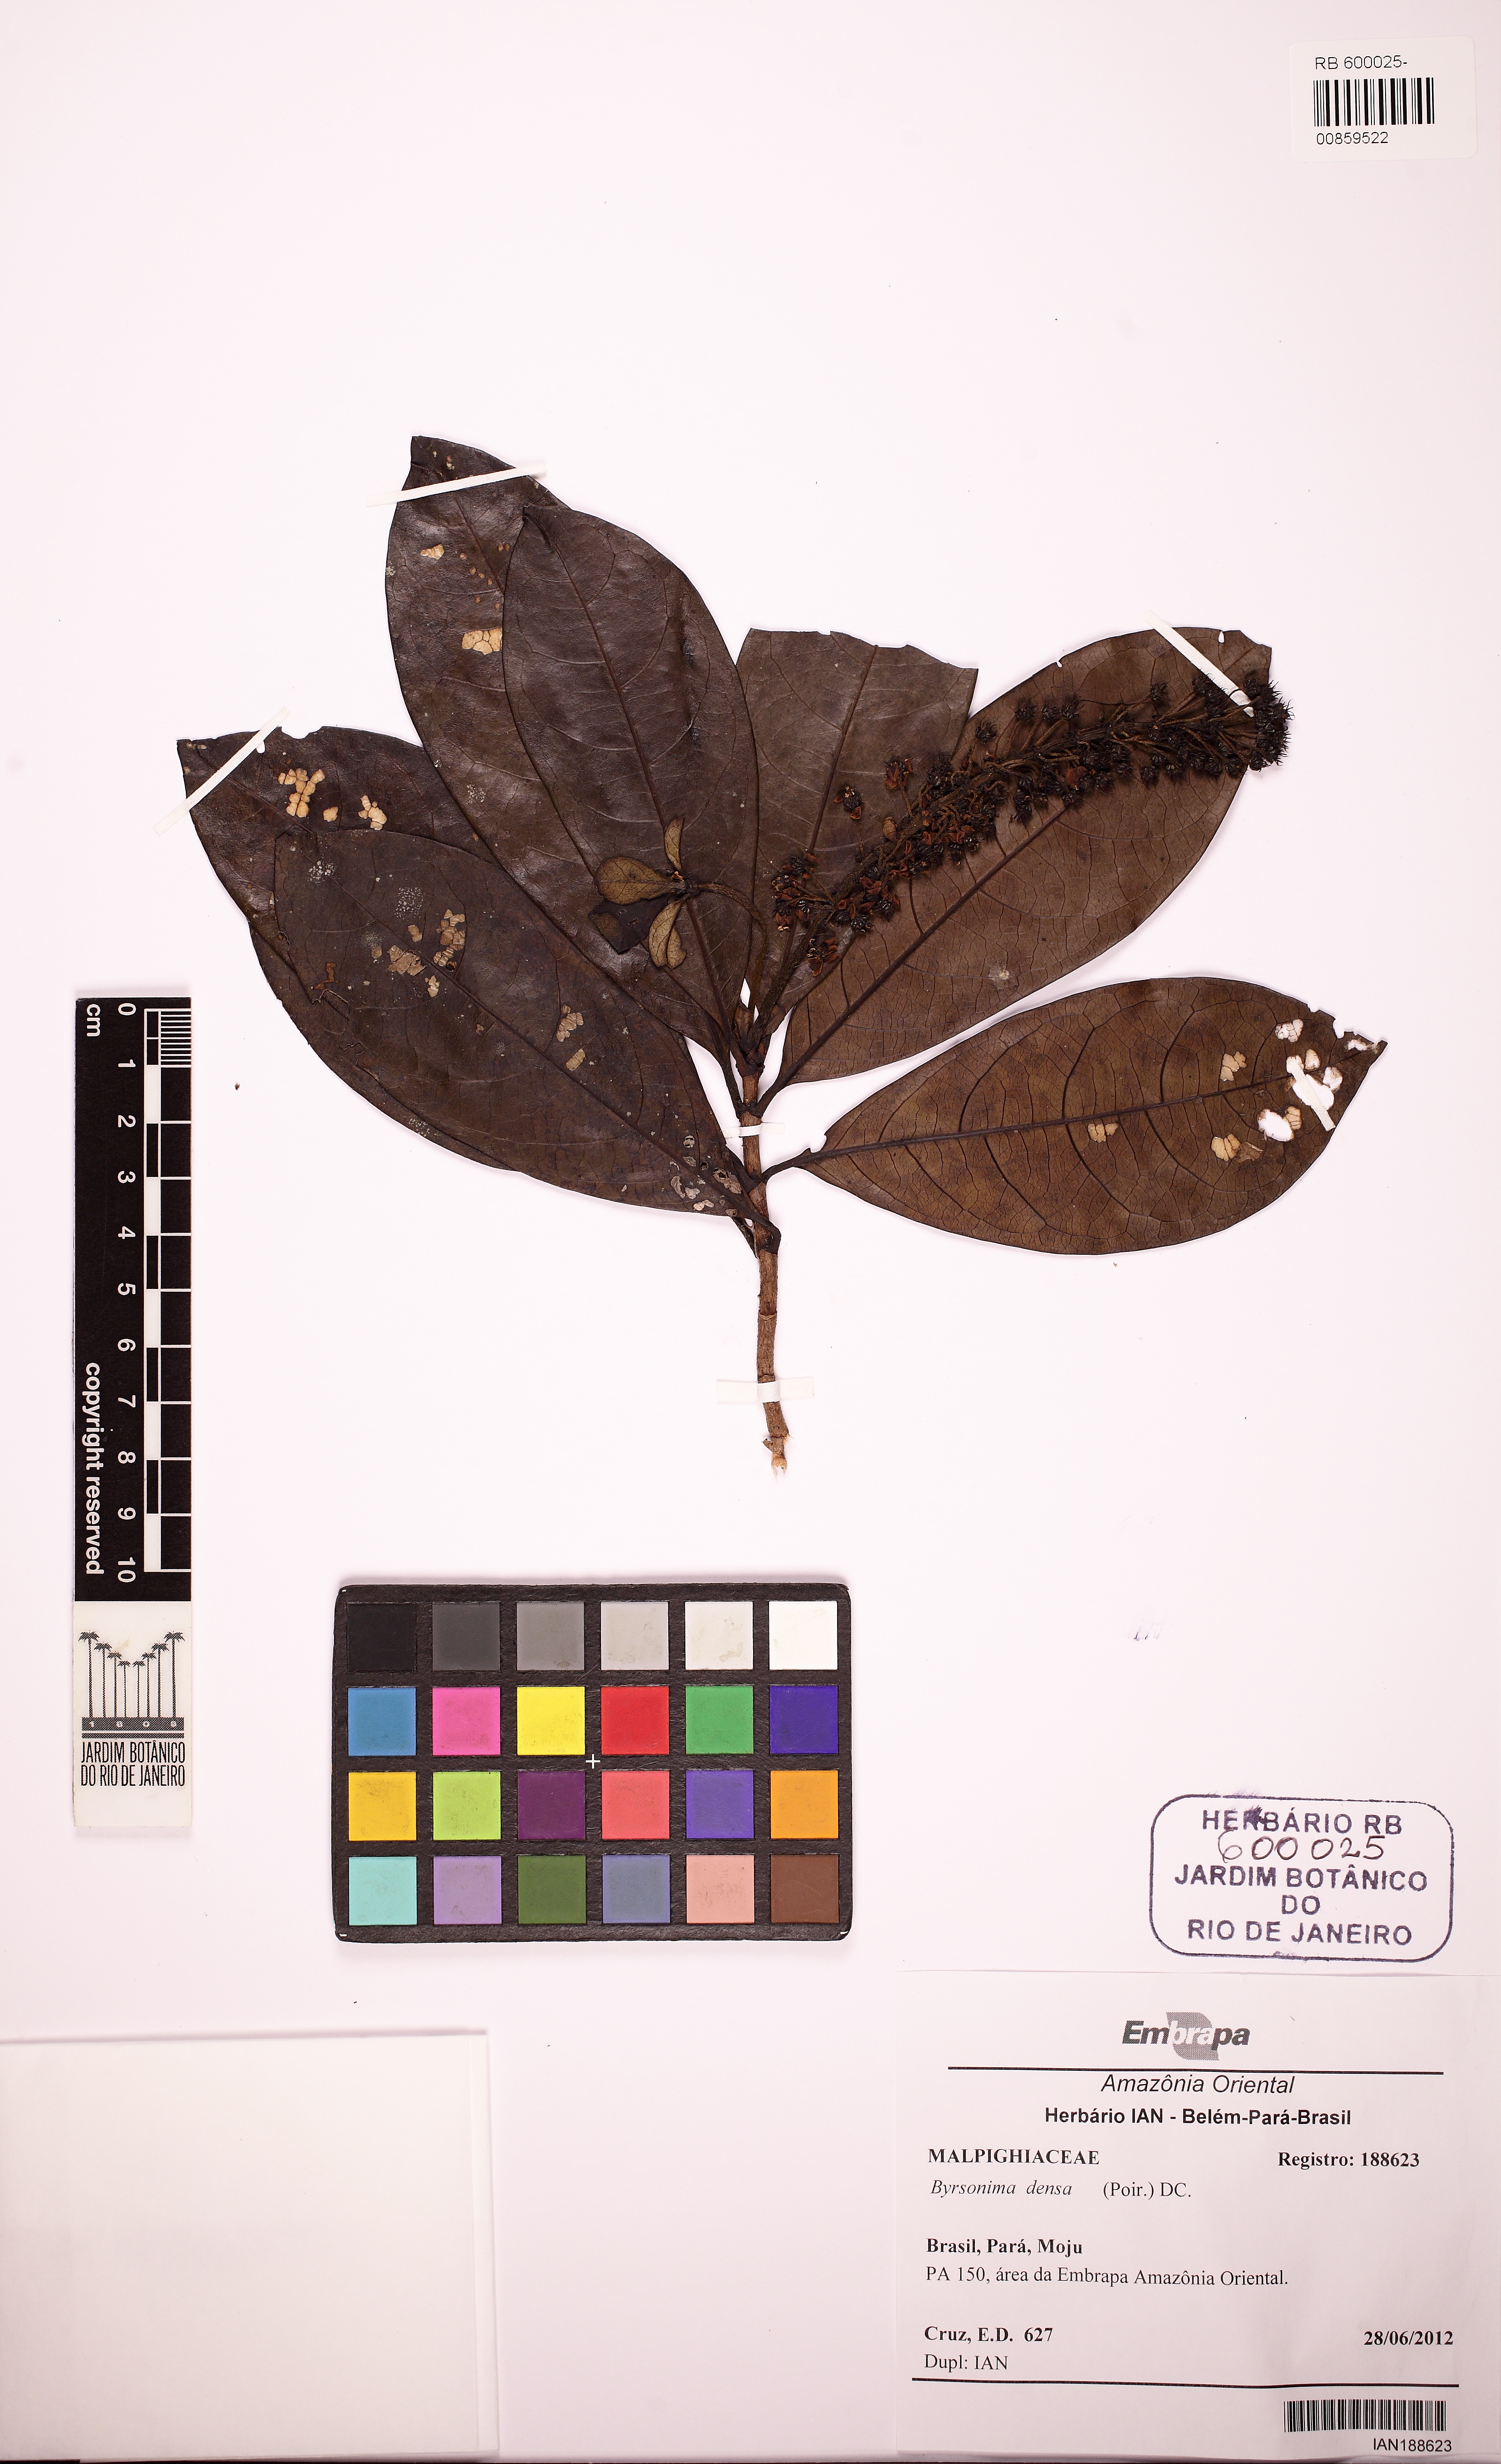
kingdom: Plantae
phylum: Tracheophyta
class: Magnoliopsida
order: Malpighiales
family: Malpighiaceae
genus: Byrsonima
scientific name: Byrsonima densa
